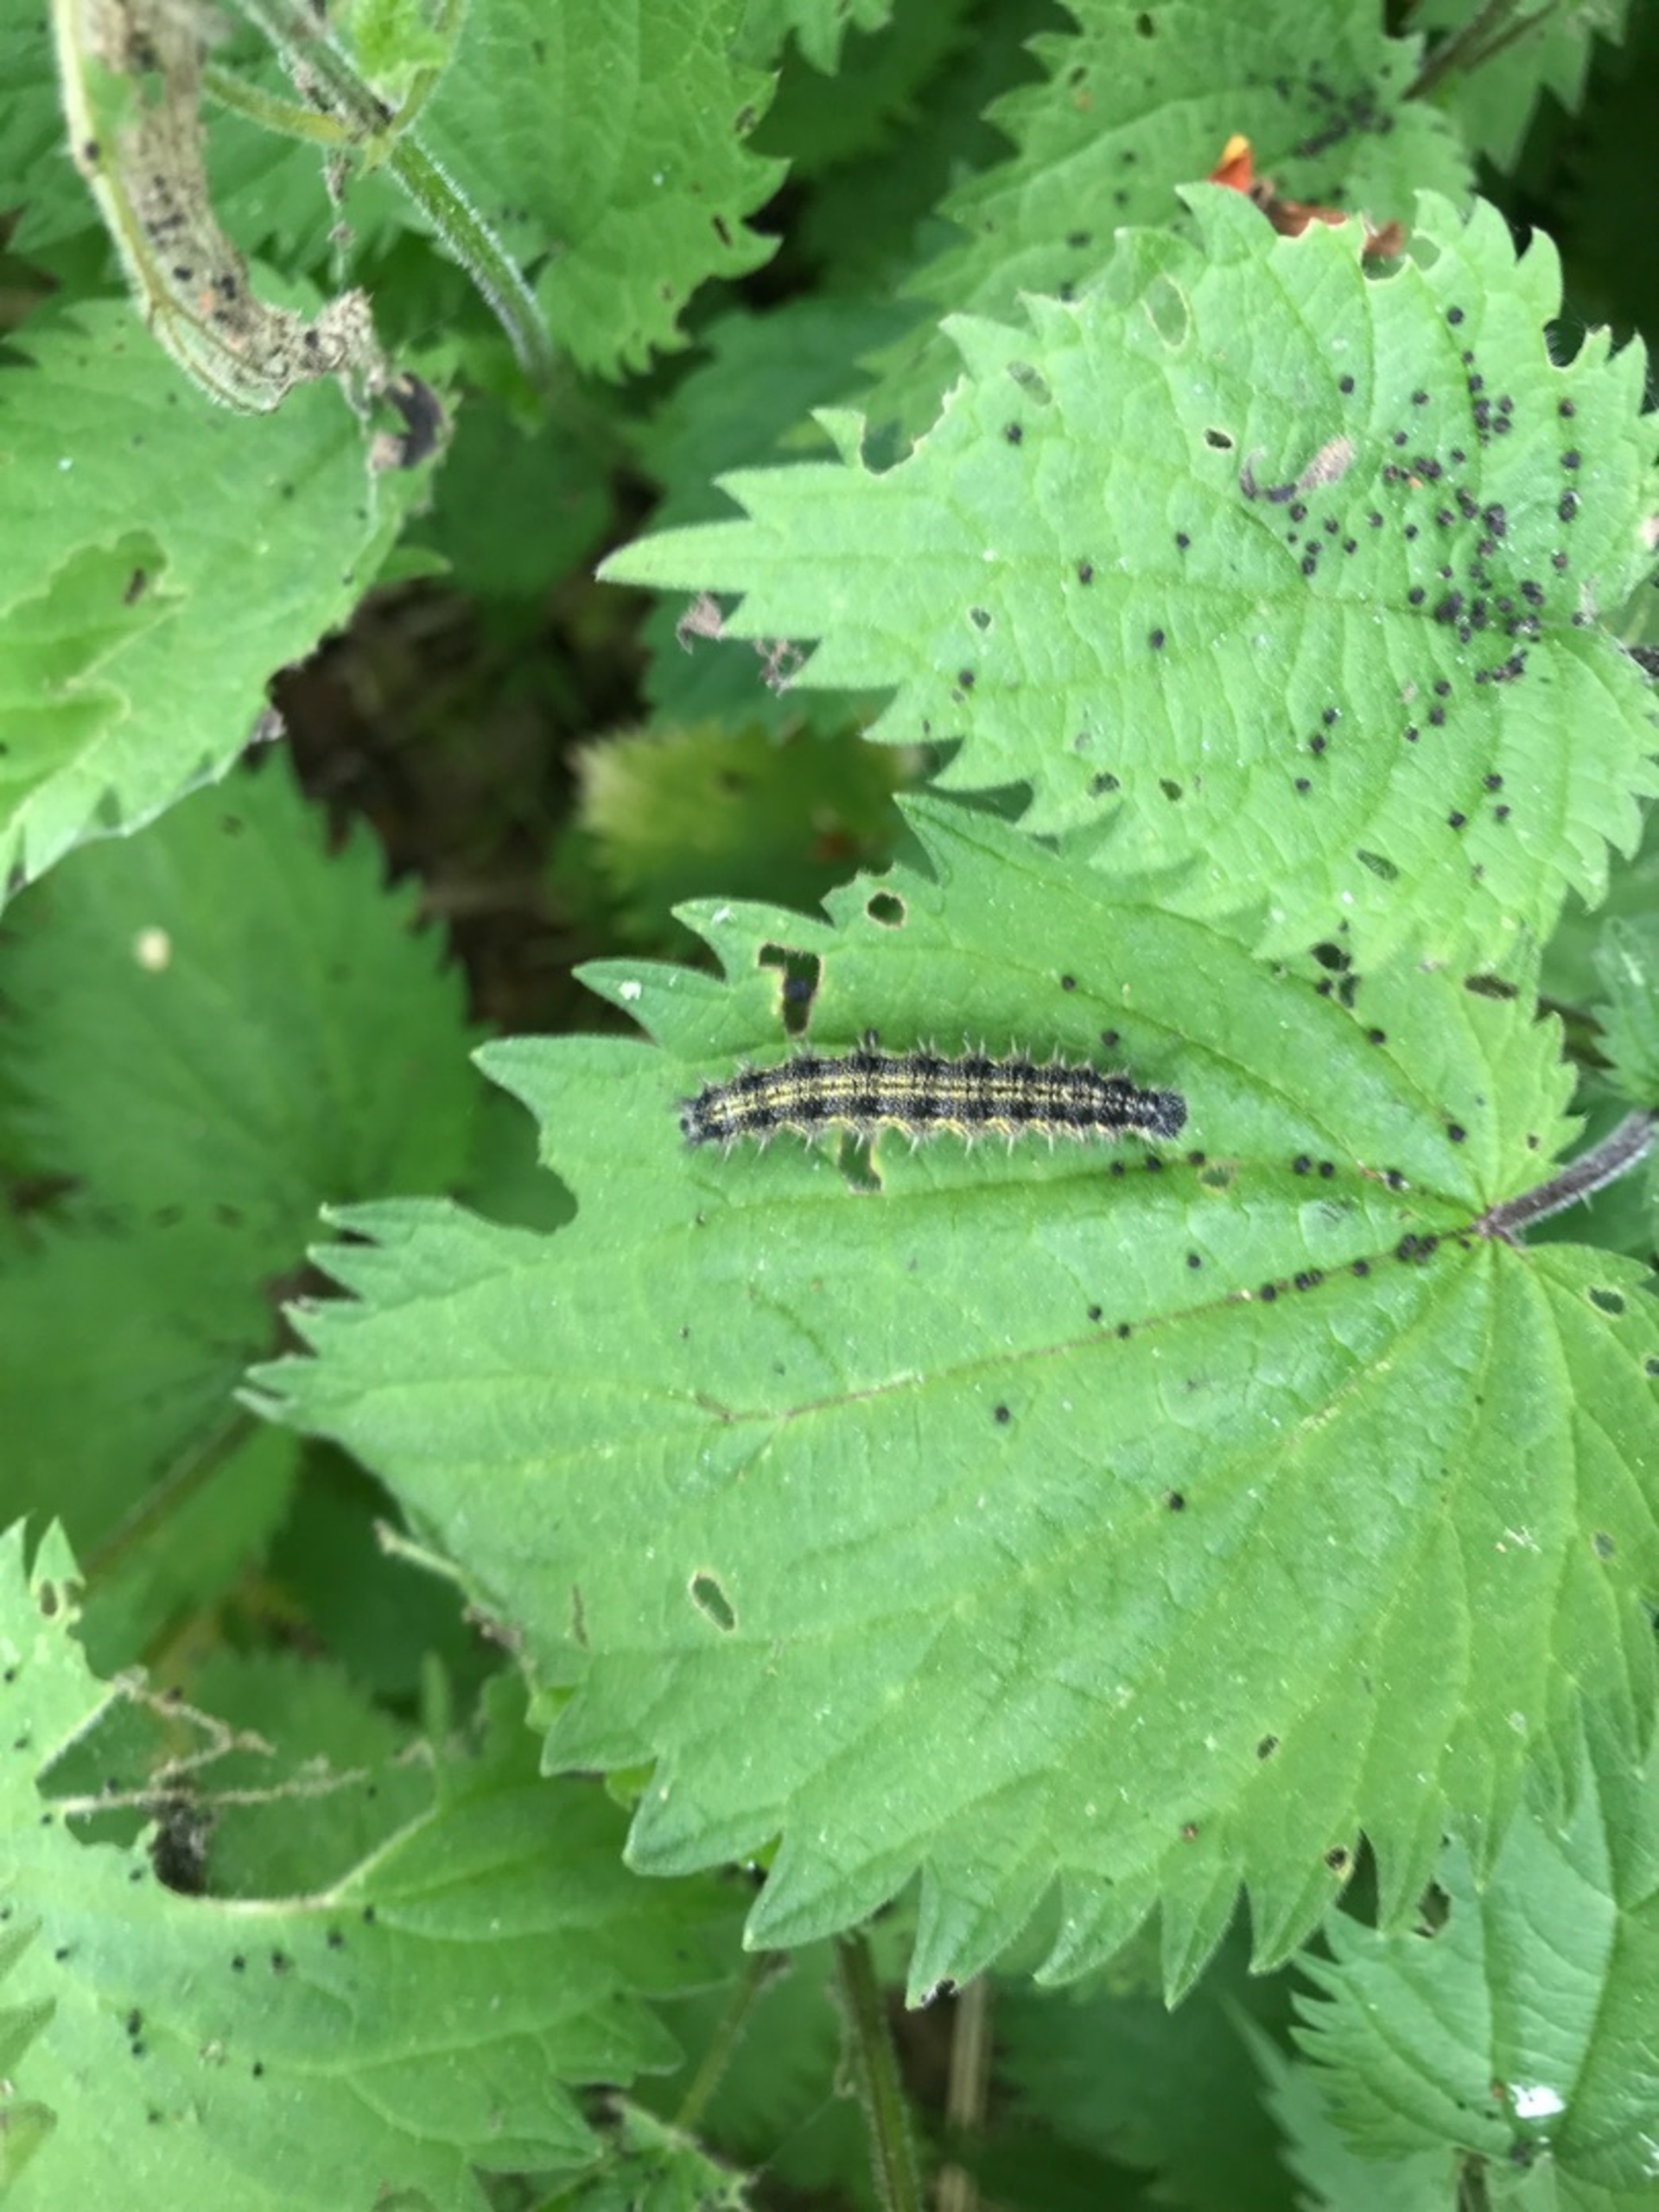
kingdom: Animalia
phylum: Arthropoda
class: Insecta
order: Lepidoptera
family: Nymphalidae
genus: Aglais
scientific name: Aglais urticae
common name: Nældens takvinge
